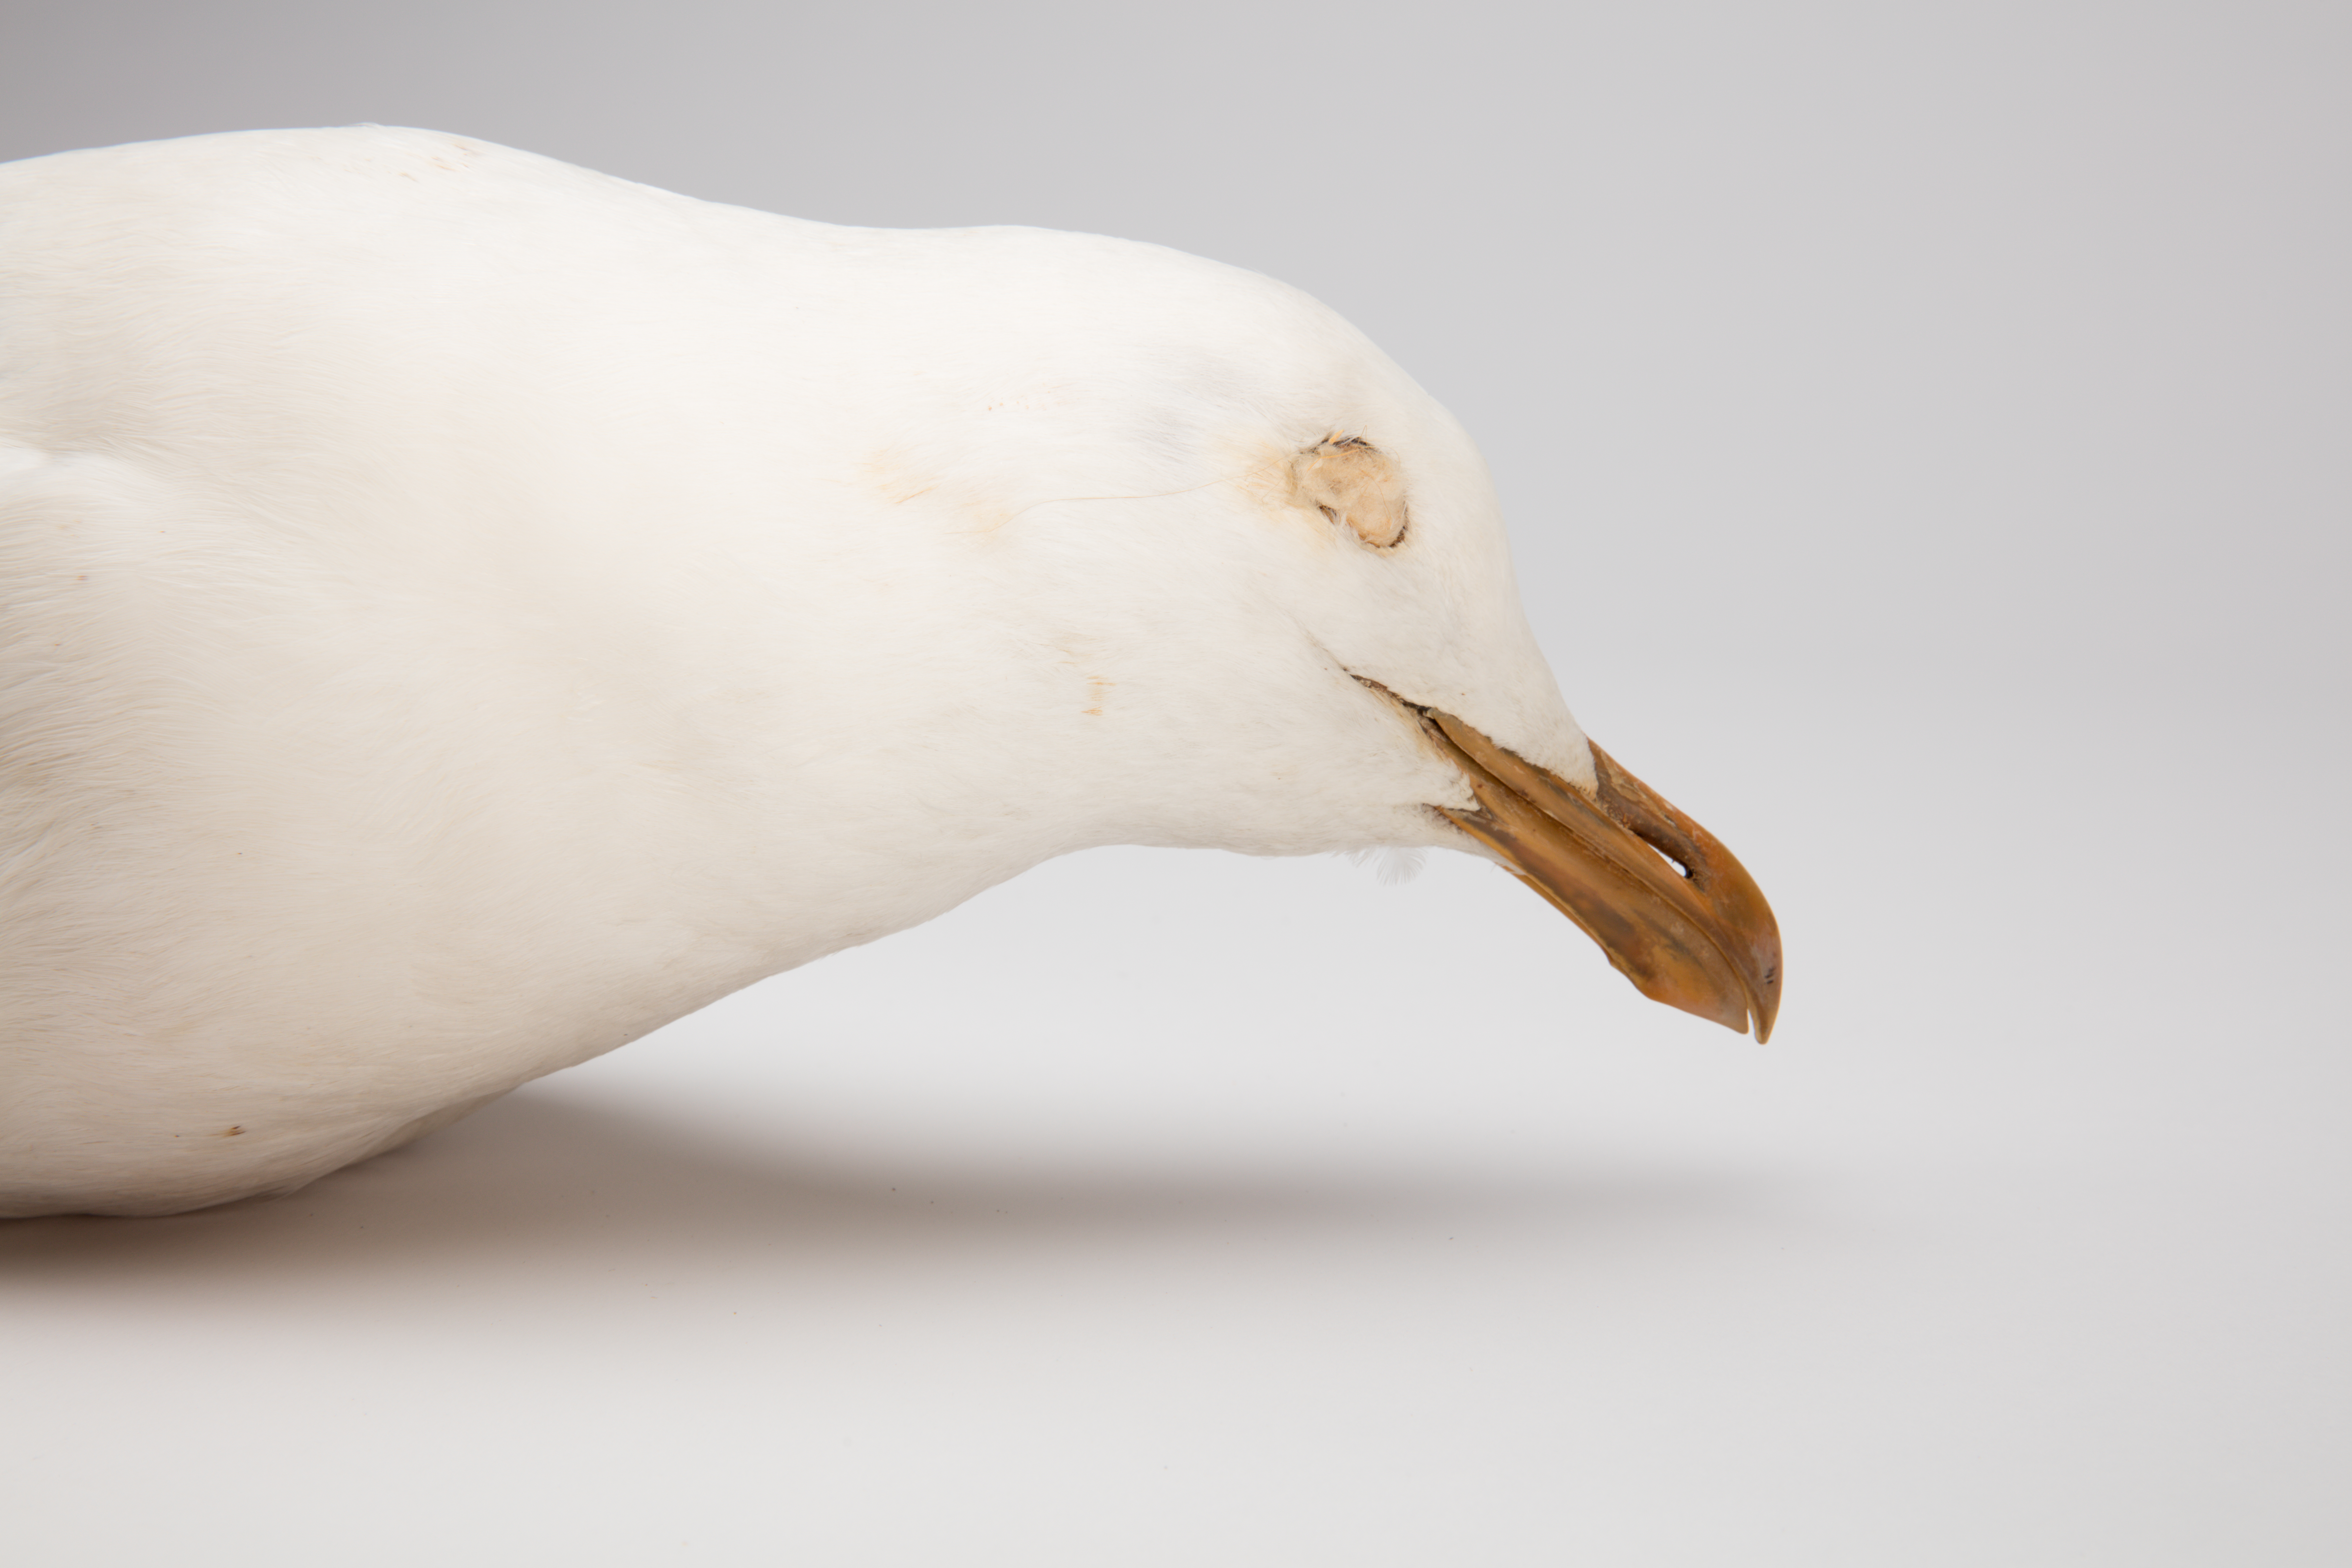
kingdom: Animalia
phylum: Chordata
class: Aves
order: Charadriiformes
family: Laridae
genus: Larus
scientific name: Larus dominicanus
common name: Kelp gull
